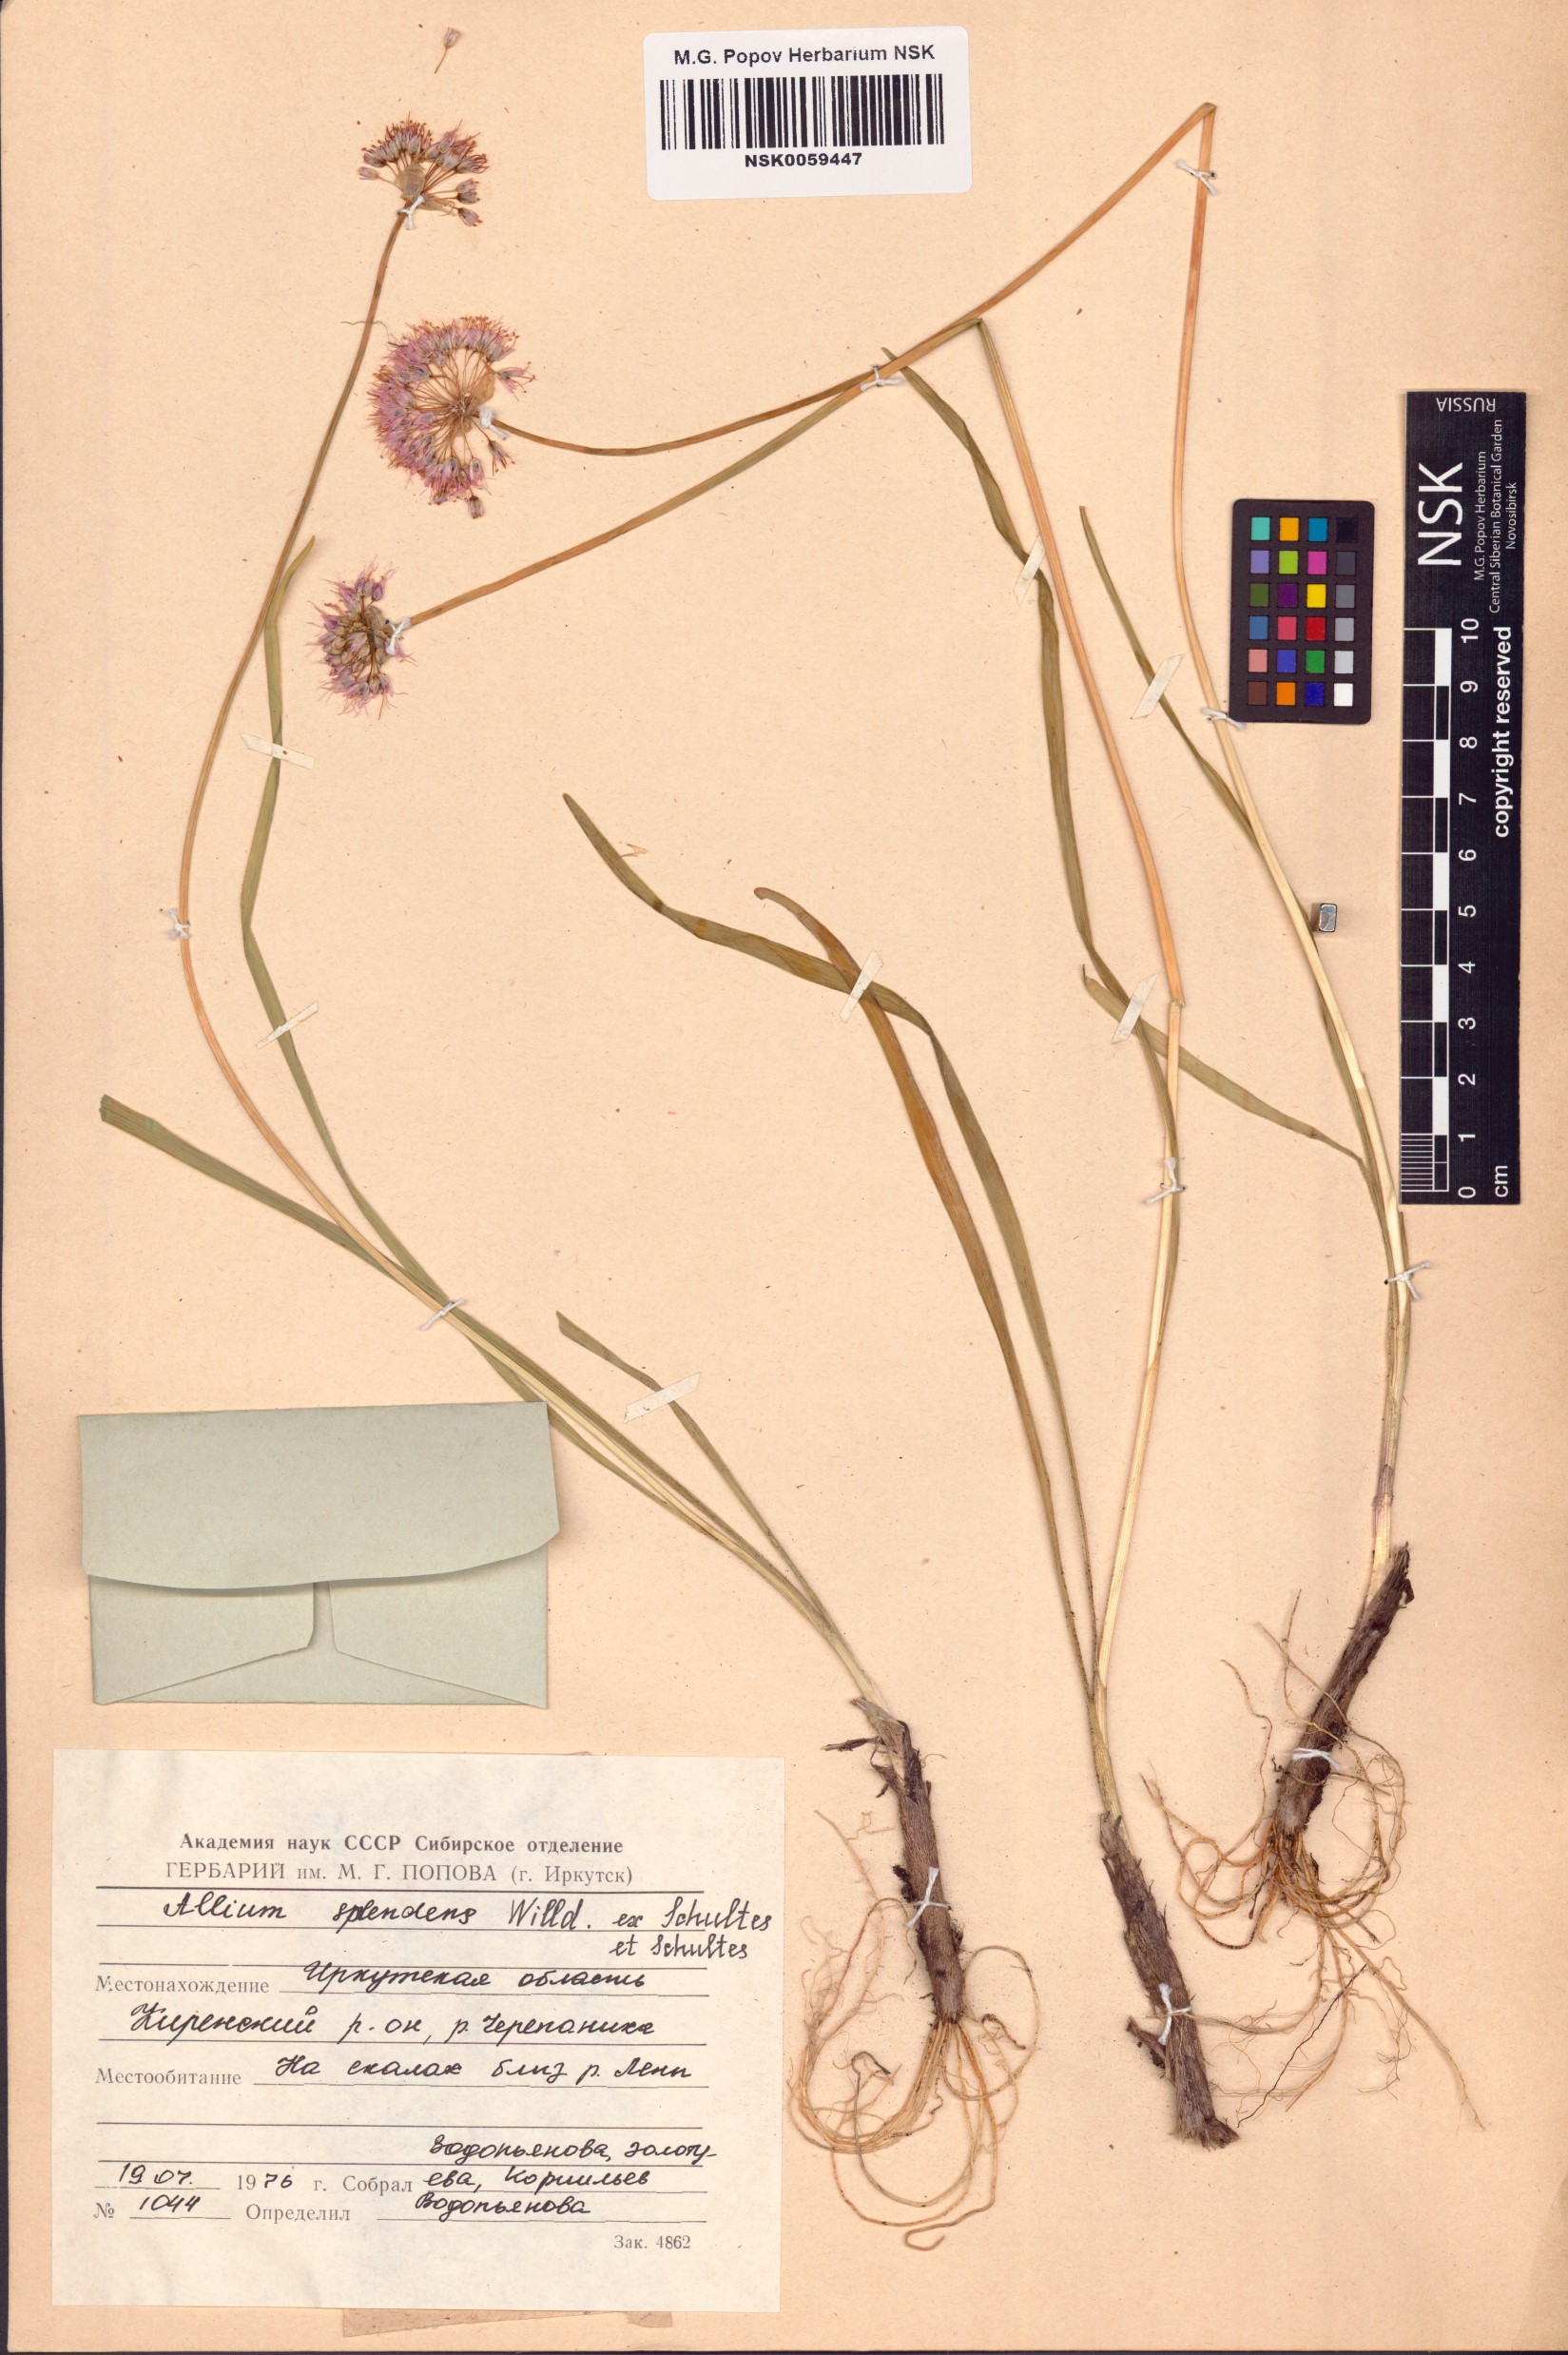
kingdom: Plantae
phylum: Tracheophyta
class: Liliopsida
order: Asparagales
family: Amaryllidaceae
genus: Allium
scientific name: Allium splendens
